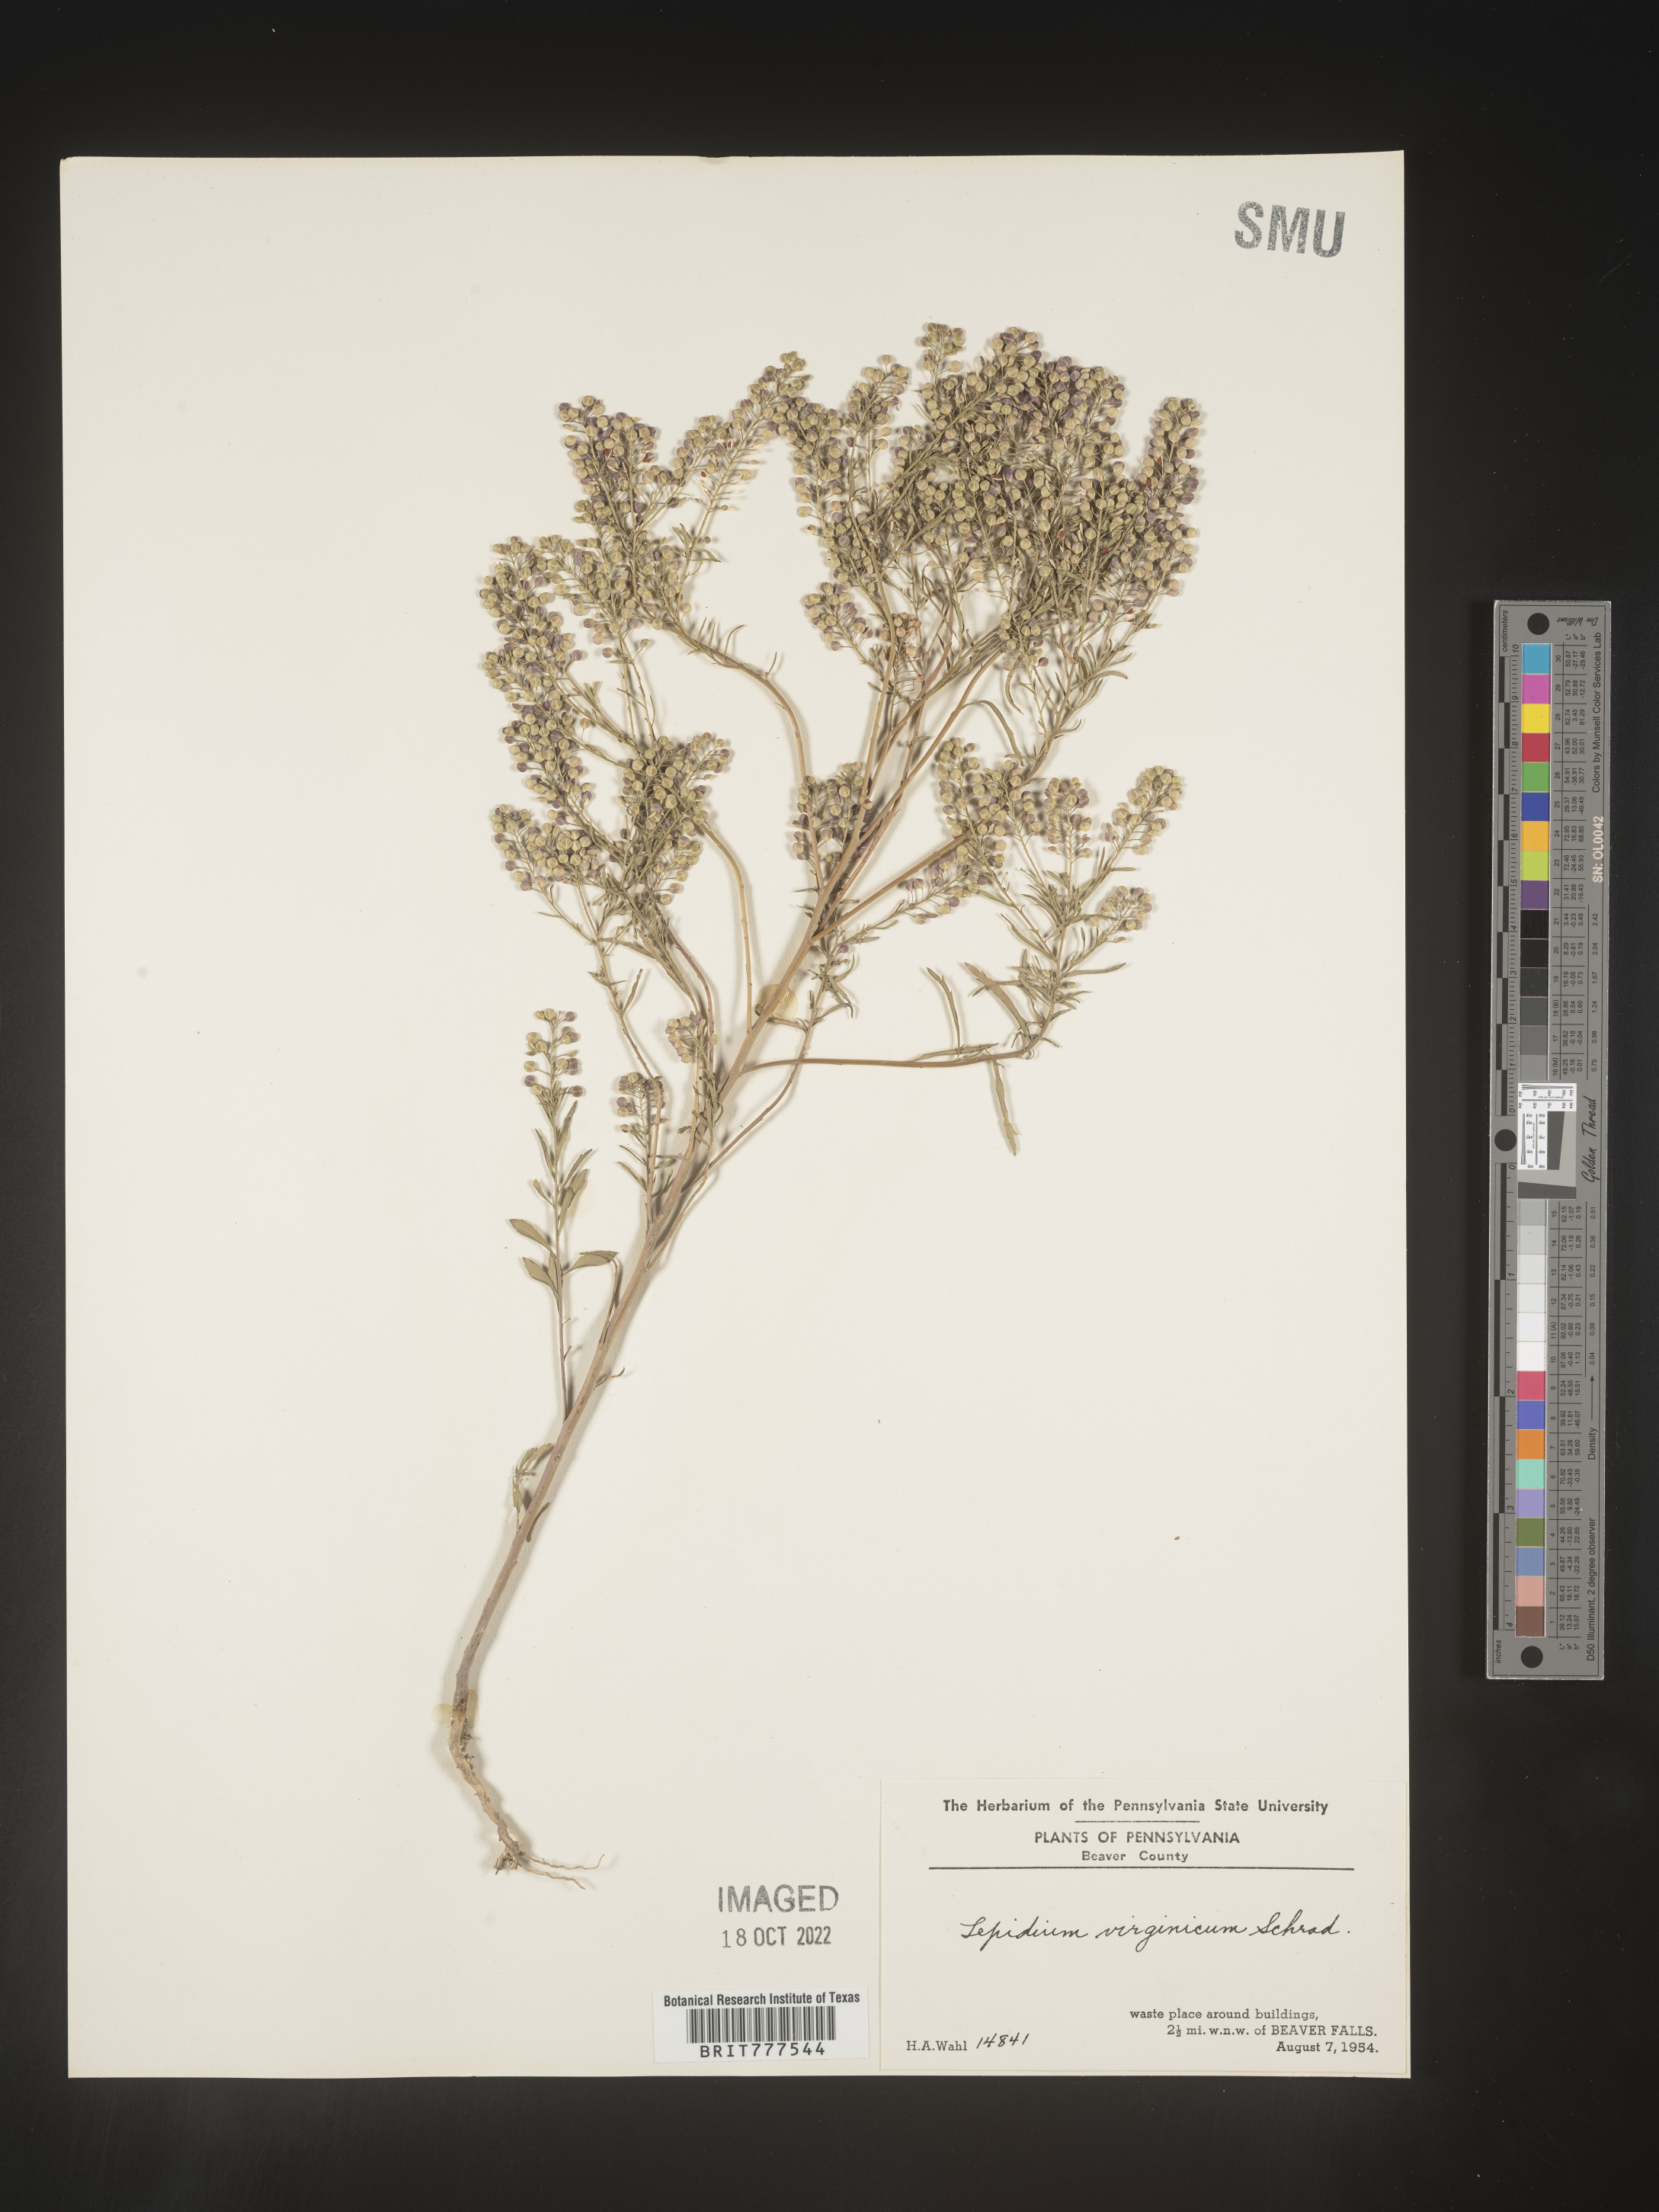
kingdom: Plantae
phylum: Tracheophyta
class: Magnoliopsida
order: Brassicales
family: Brassicaceae
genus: Lepidium
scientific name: Lepidium virginicum
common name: Least pepperwort
